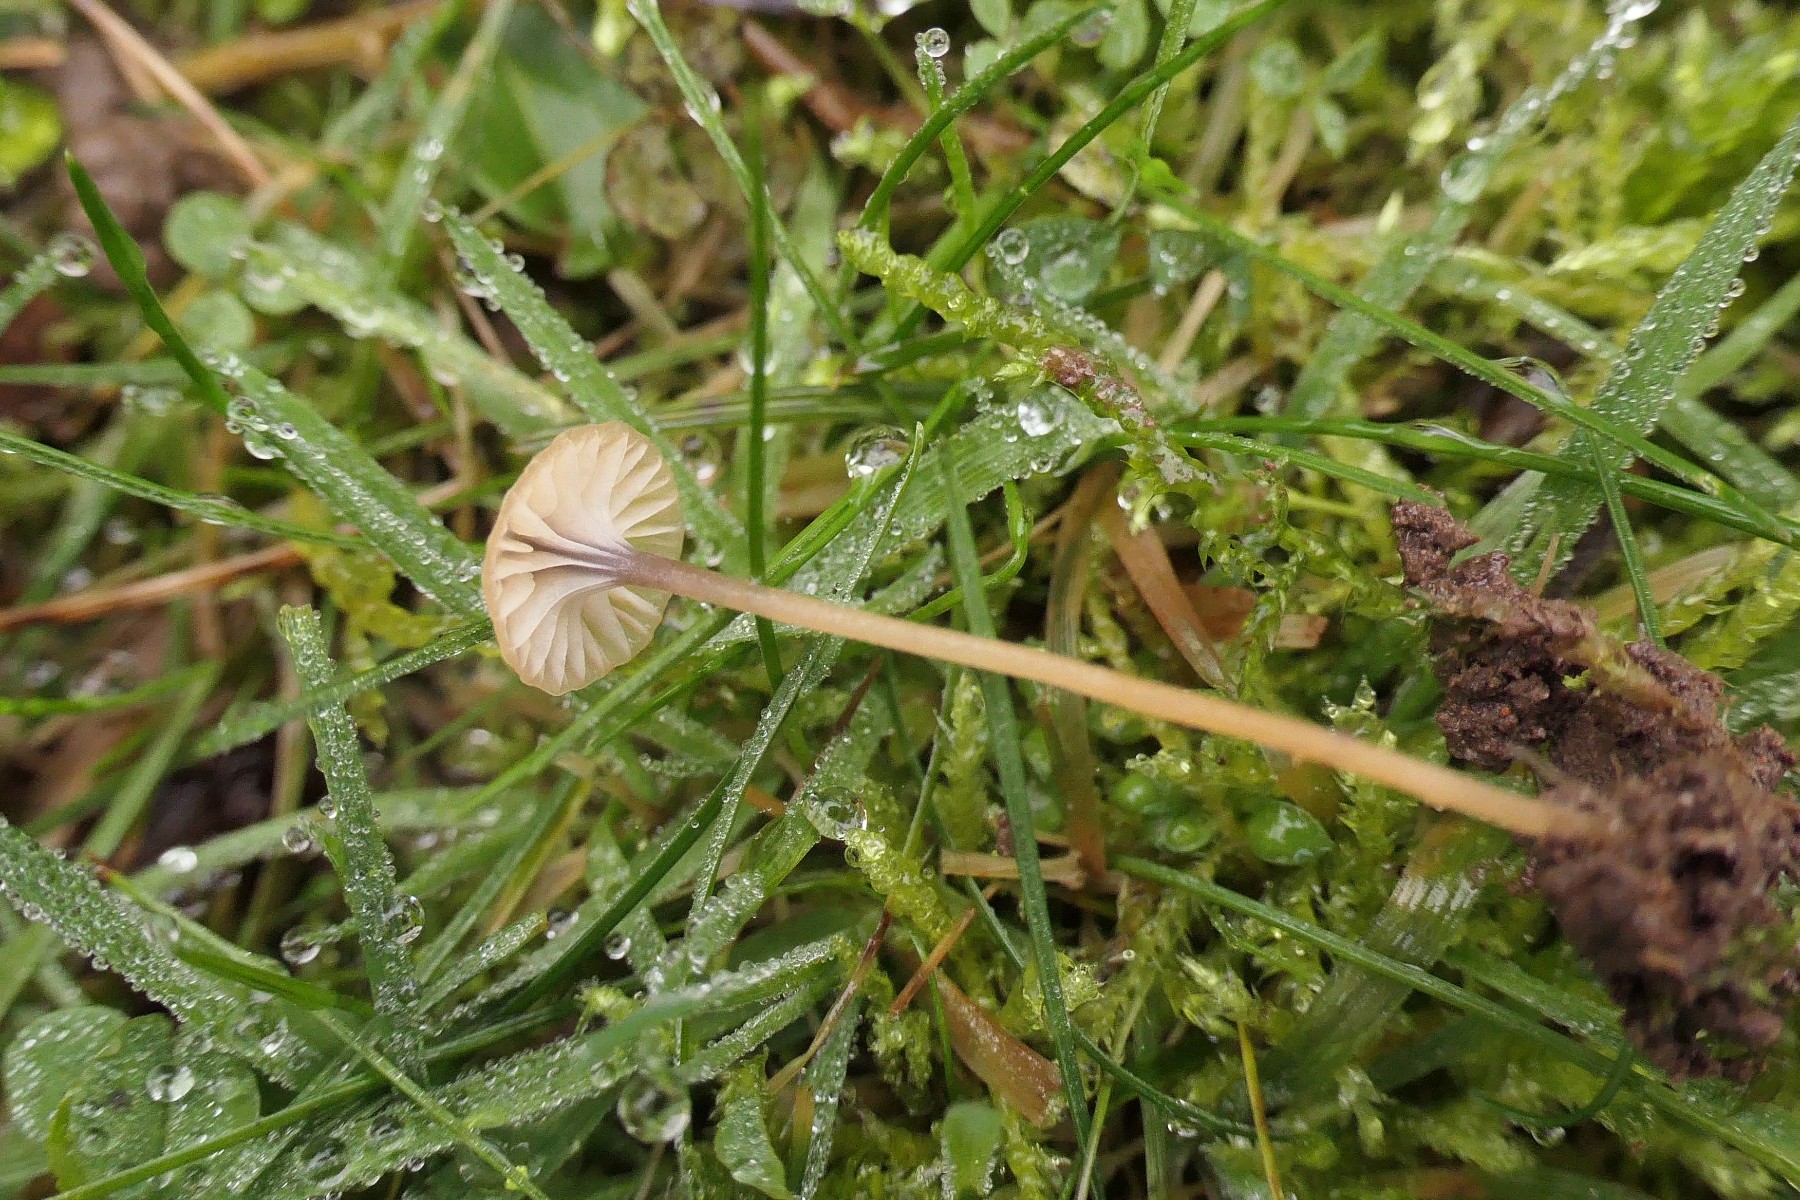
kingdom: Fungi
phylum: Basidiomycota
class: Agaricomycetes
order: Hymenochaetales
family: Rickenellaceae
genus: Rickenella
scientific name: Rickenella swartzii
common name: finstokket mosnavlehat
